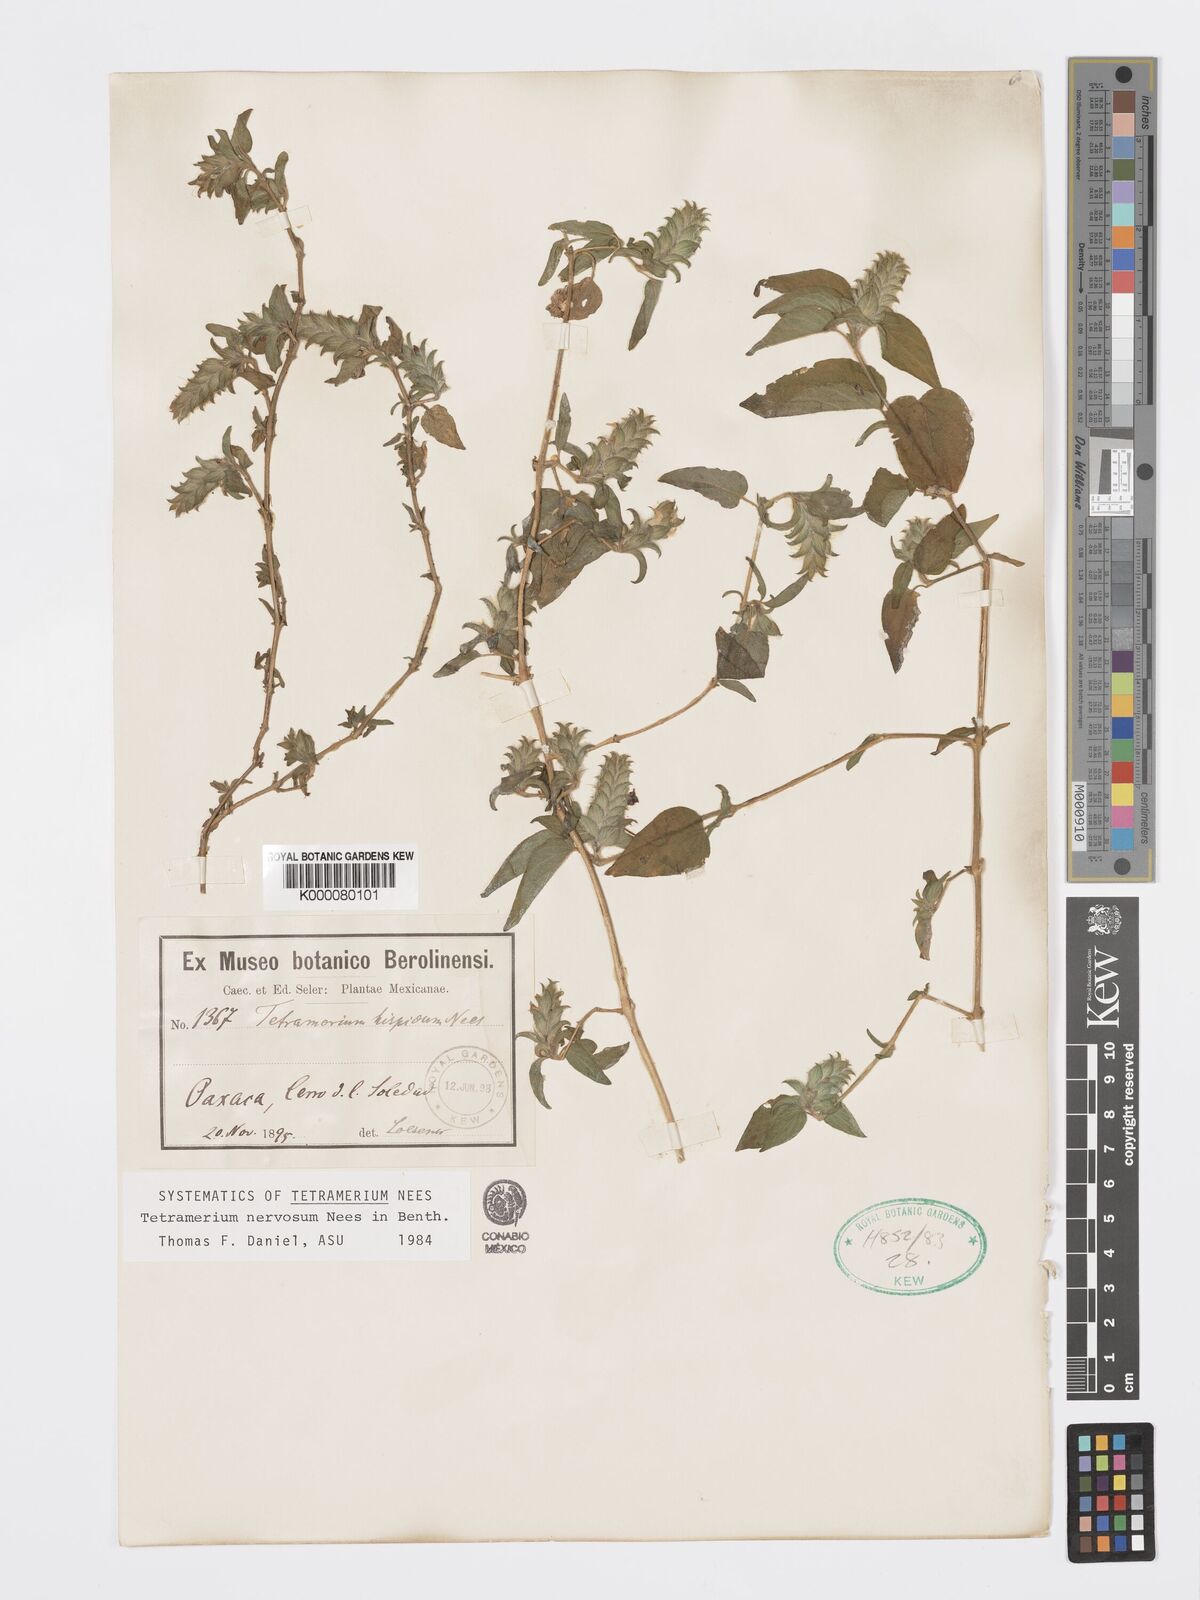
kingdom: Plantae
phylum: Tracheophyta
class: Magnoliopsida
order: Lamiales
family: Acanthaceae
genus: Tetramerium
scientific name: Tetramerium nervosum
